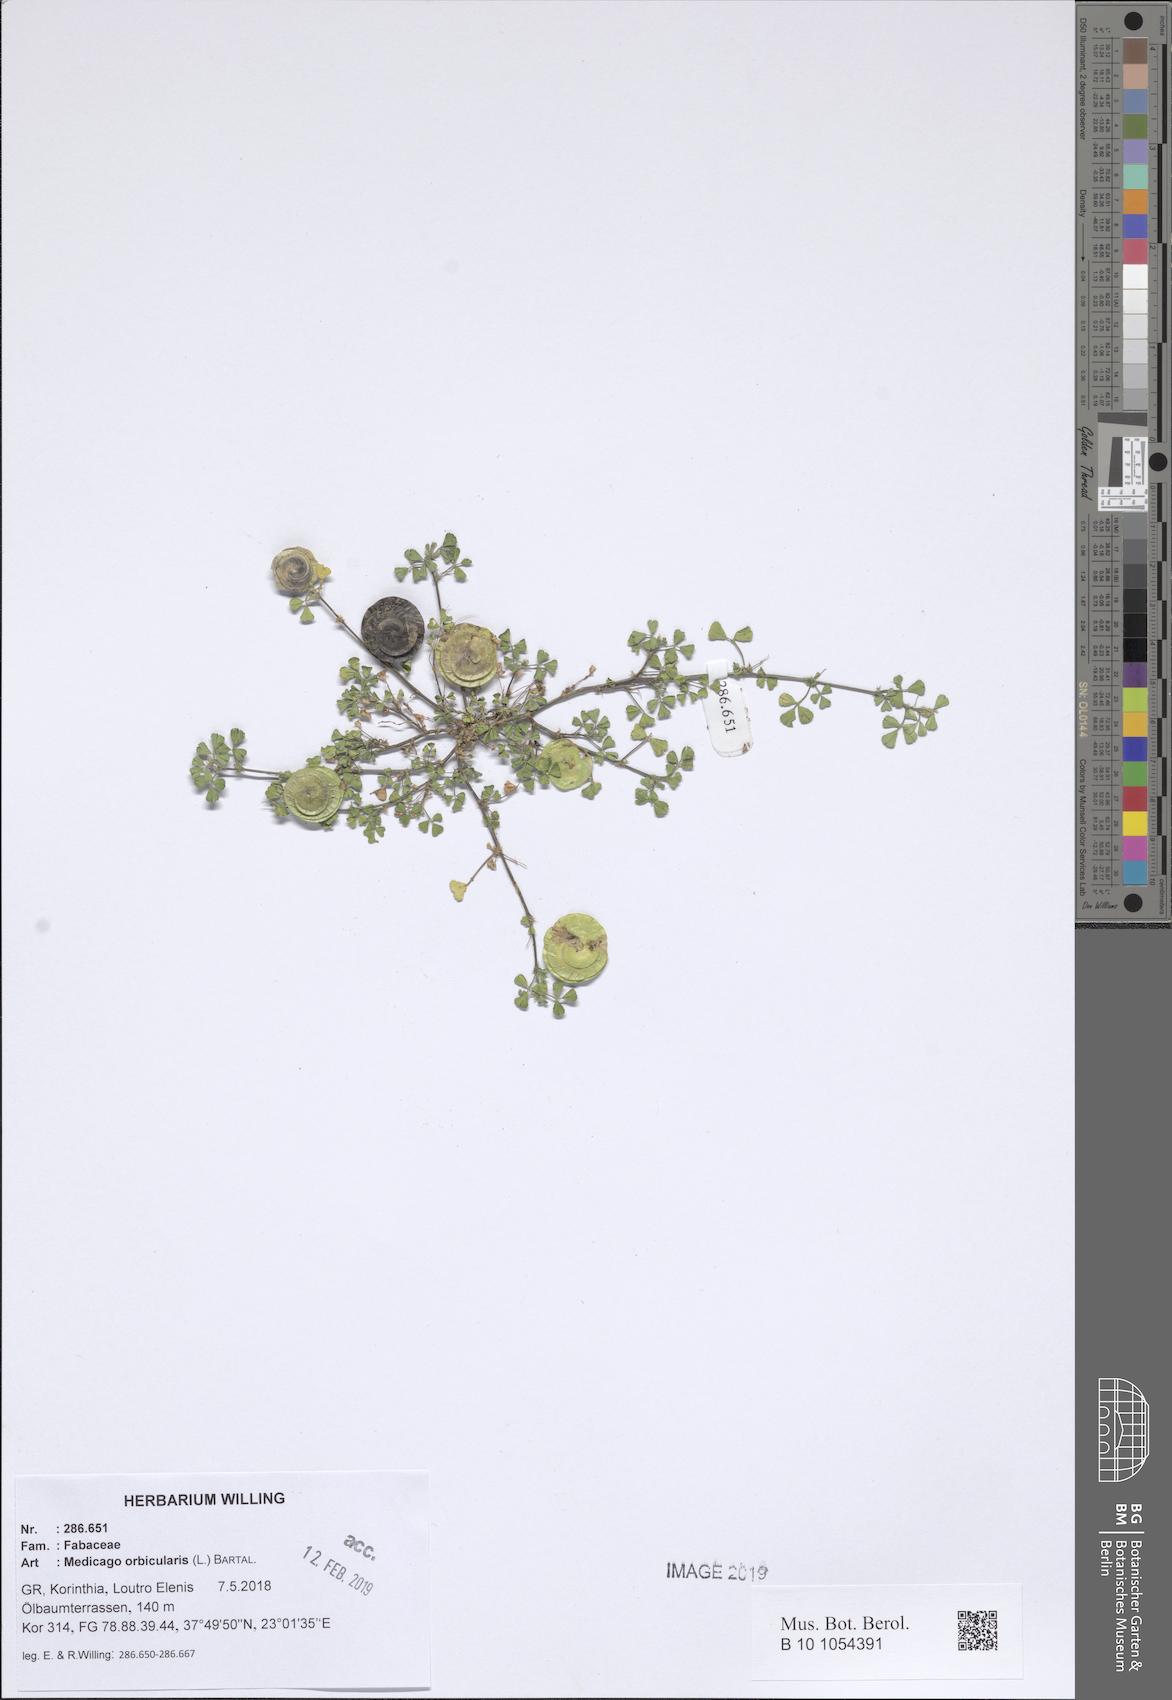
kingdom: Plantae
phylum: Tracheophyta
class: Magnoliopsida
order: Fabales
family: Fabaceae
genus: Medicago
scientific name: Medicago orbicularis
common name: Button medick
